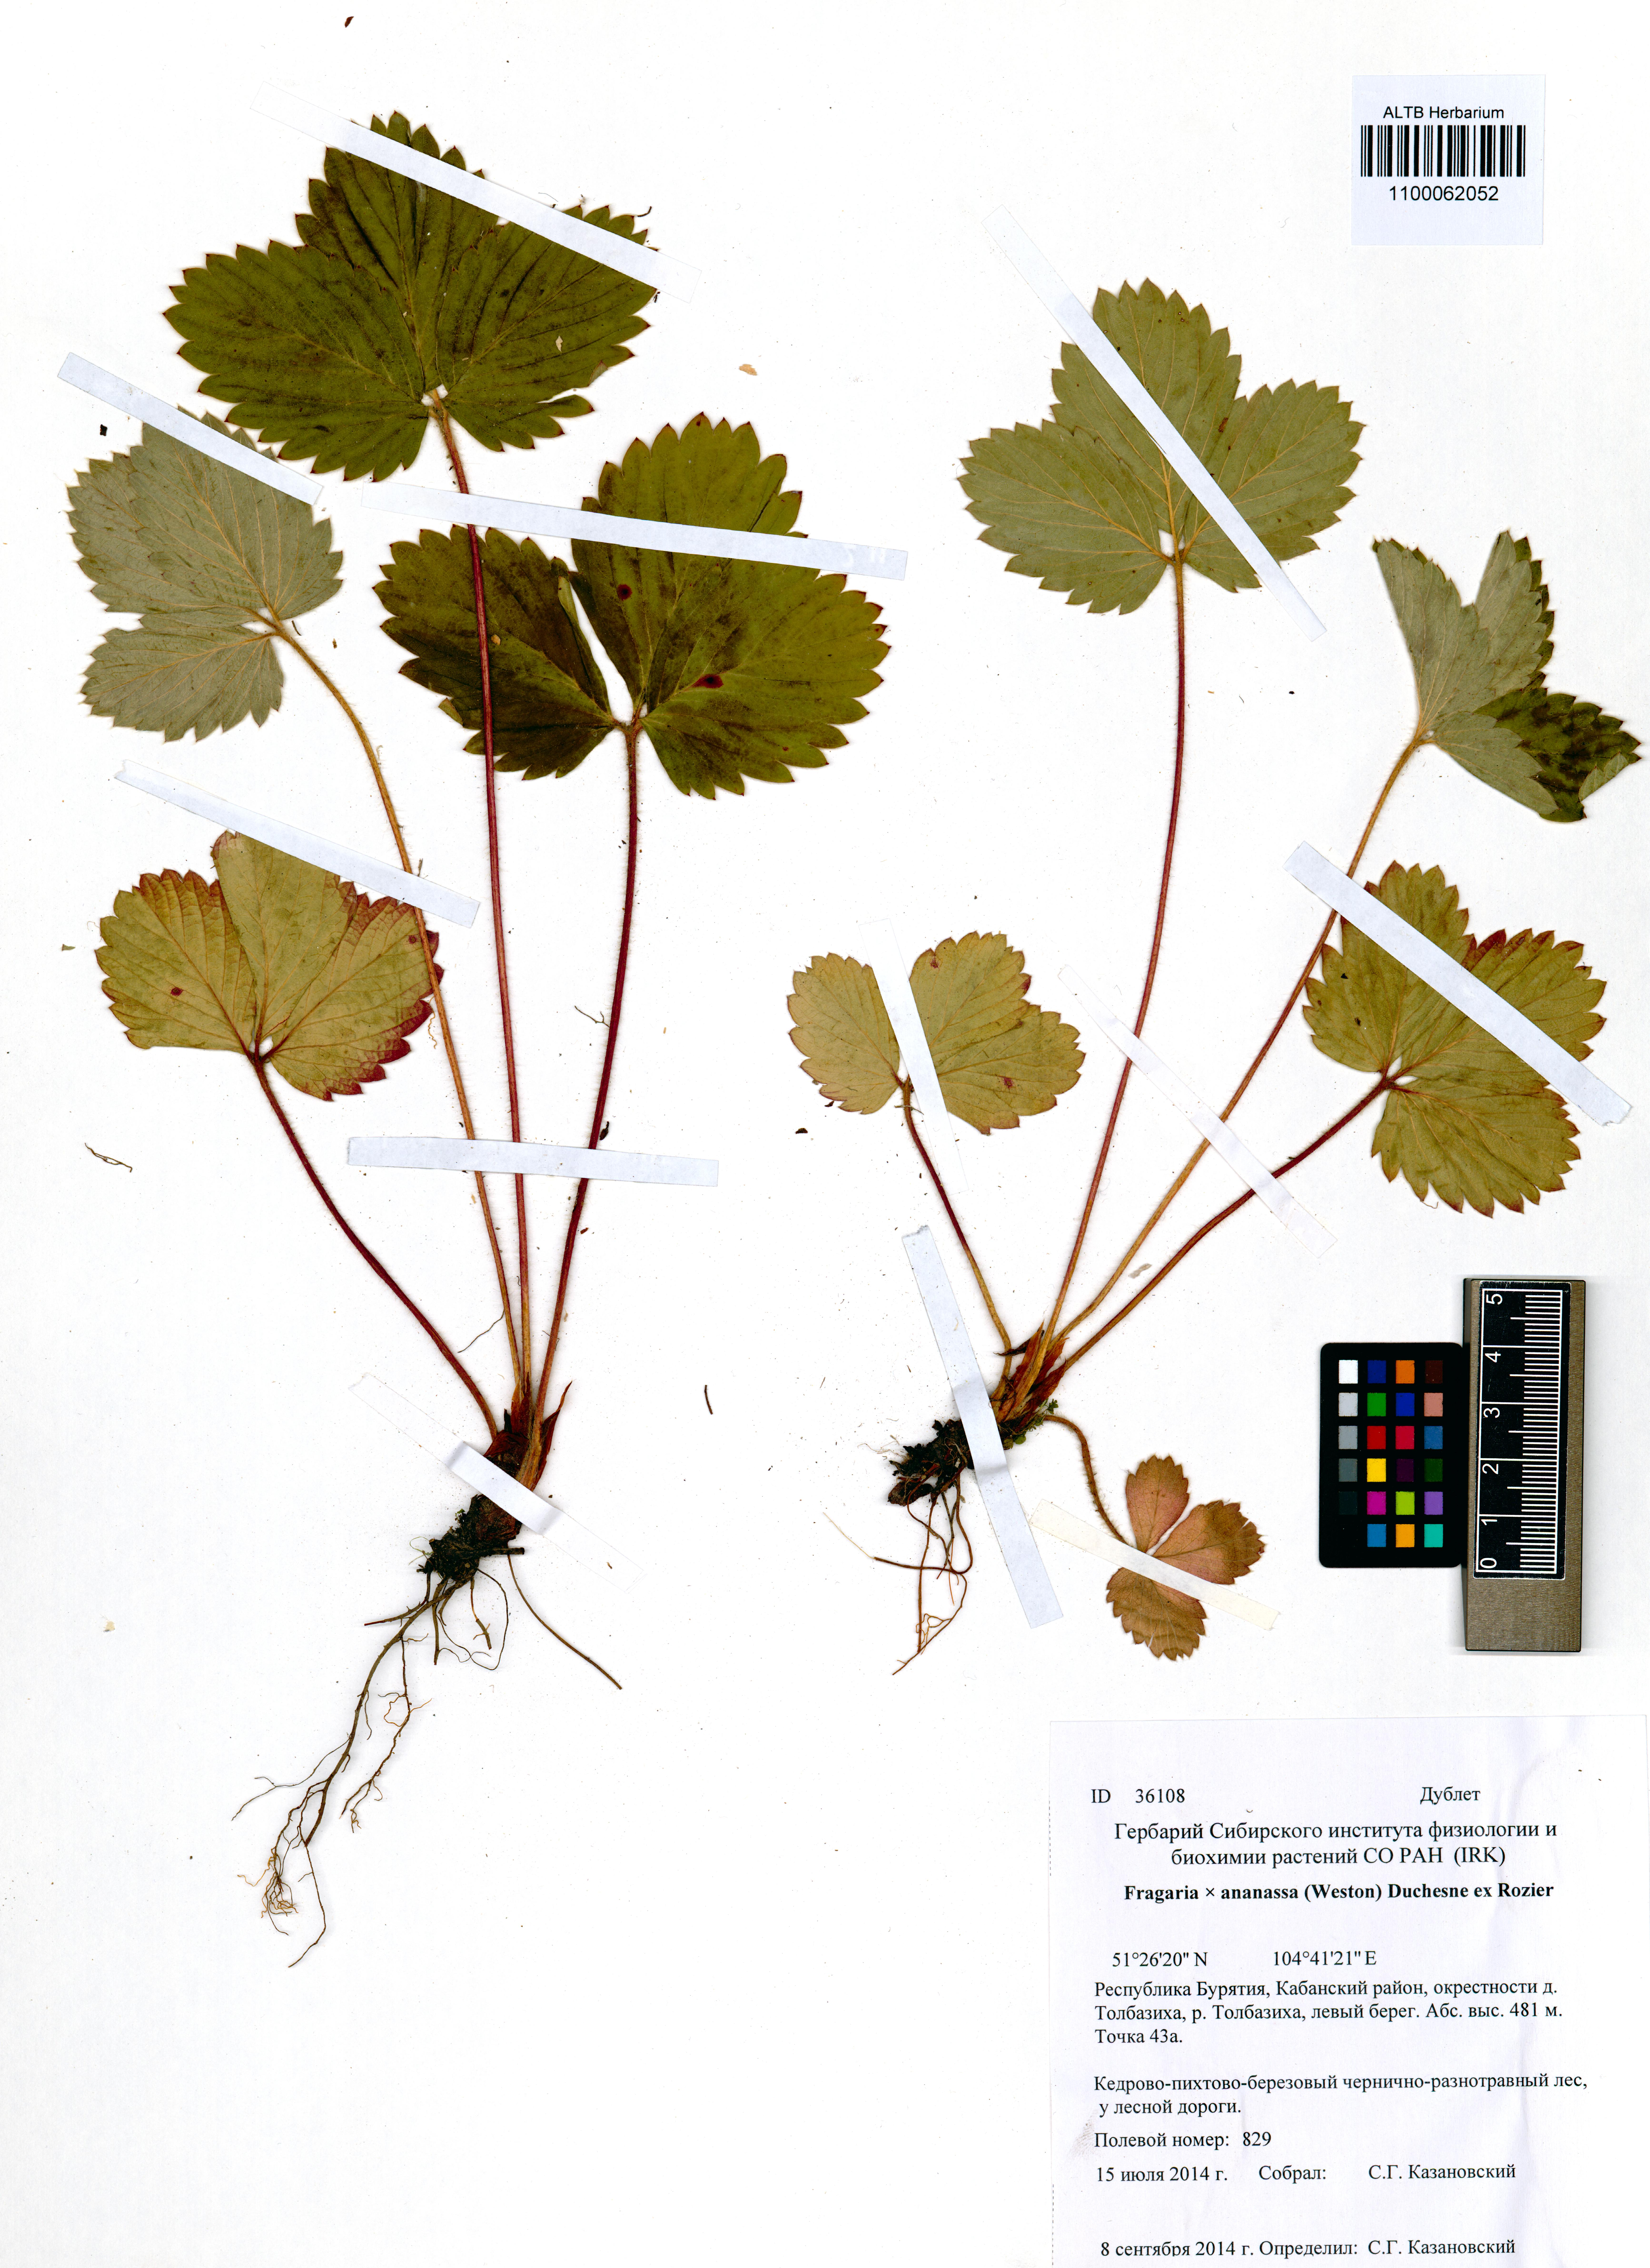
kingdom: Plantae
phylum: Tracheophyta
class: Magnoliopsida
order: Rosales
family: Rosaceae
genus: Fragaria
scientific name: Fragaria ananassa
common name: Garden strawberry
